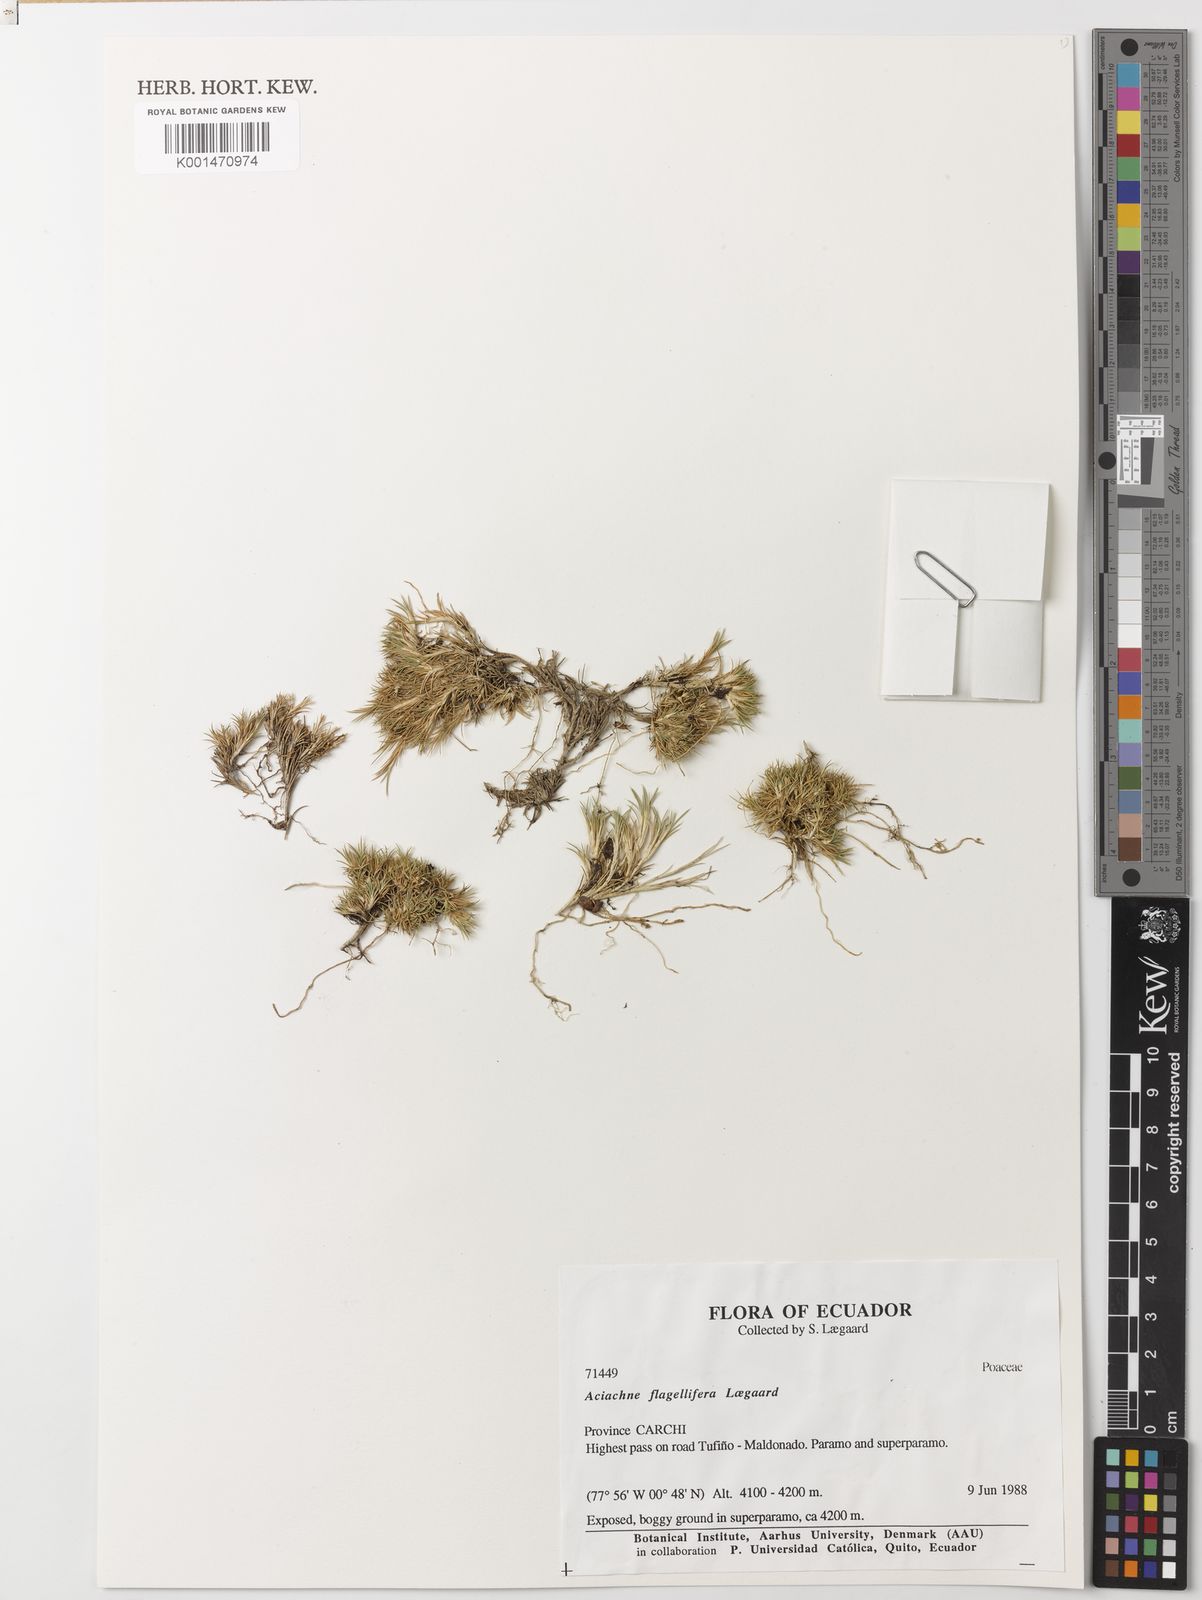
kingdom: Plantae
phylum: Tracheophyta
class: Liliopsida
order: Poales
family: Poaceae
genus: Aciachne
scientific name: Aciachne flagellifera
